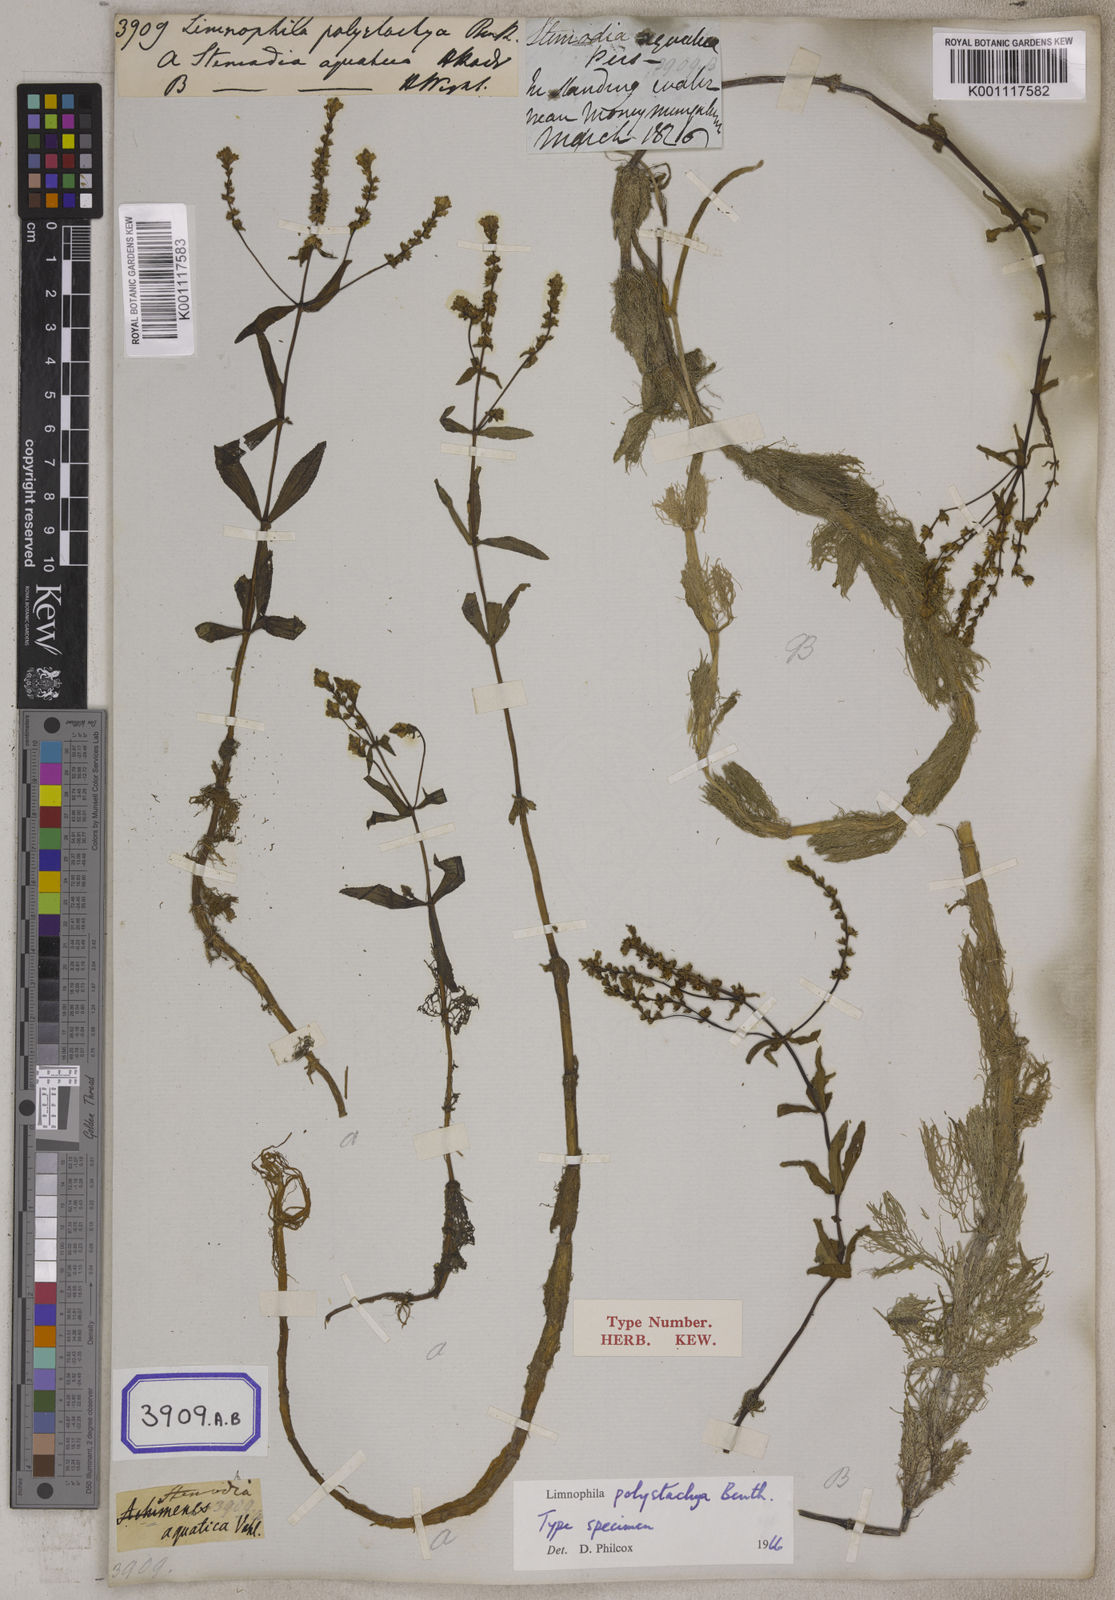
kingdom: Plantae
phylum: Tracheophyta
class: Magnoliopsida
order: Lamiales
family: Plantaginaceae
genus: Limnophila
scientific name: Limnophila polystachya
